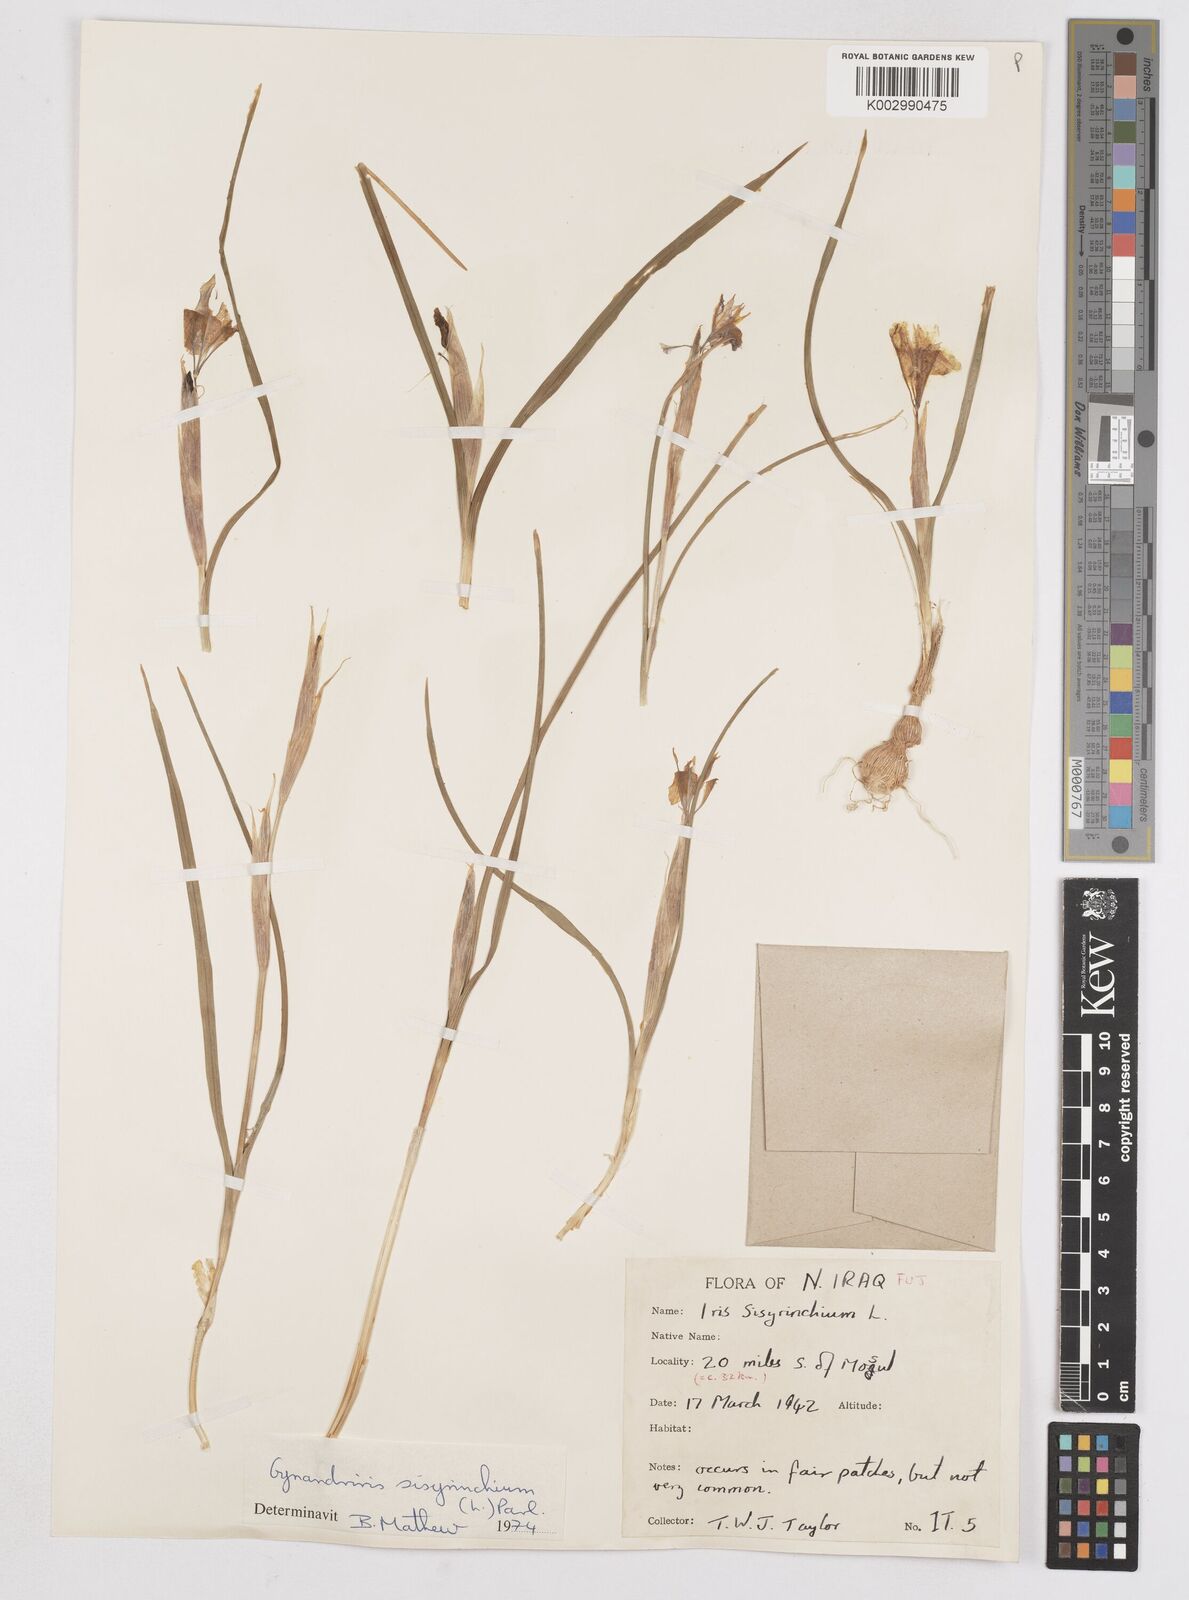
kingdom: Plantae
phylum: Tracheophyta
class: Liliopsida
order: Asparagales
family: Iridaceae
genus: Moraea
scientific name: Moraea sisyrinchium
